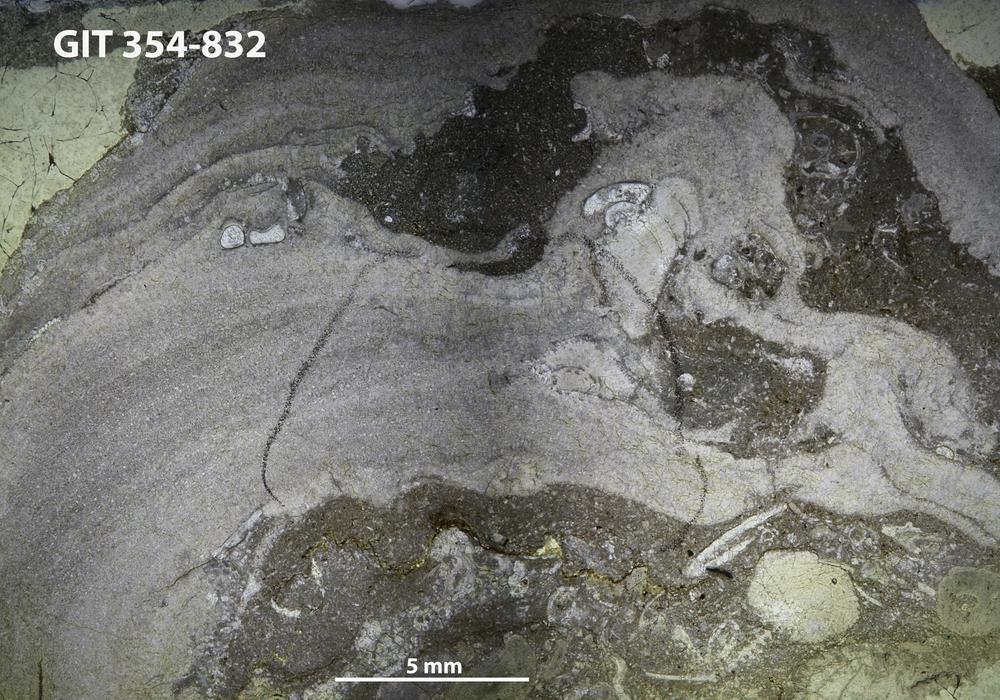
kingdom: Animalia
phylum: Porifera
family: Densastromatidae
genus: Actinostromella
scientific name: Actinostromella
